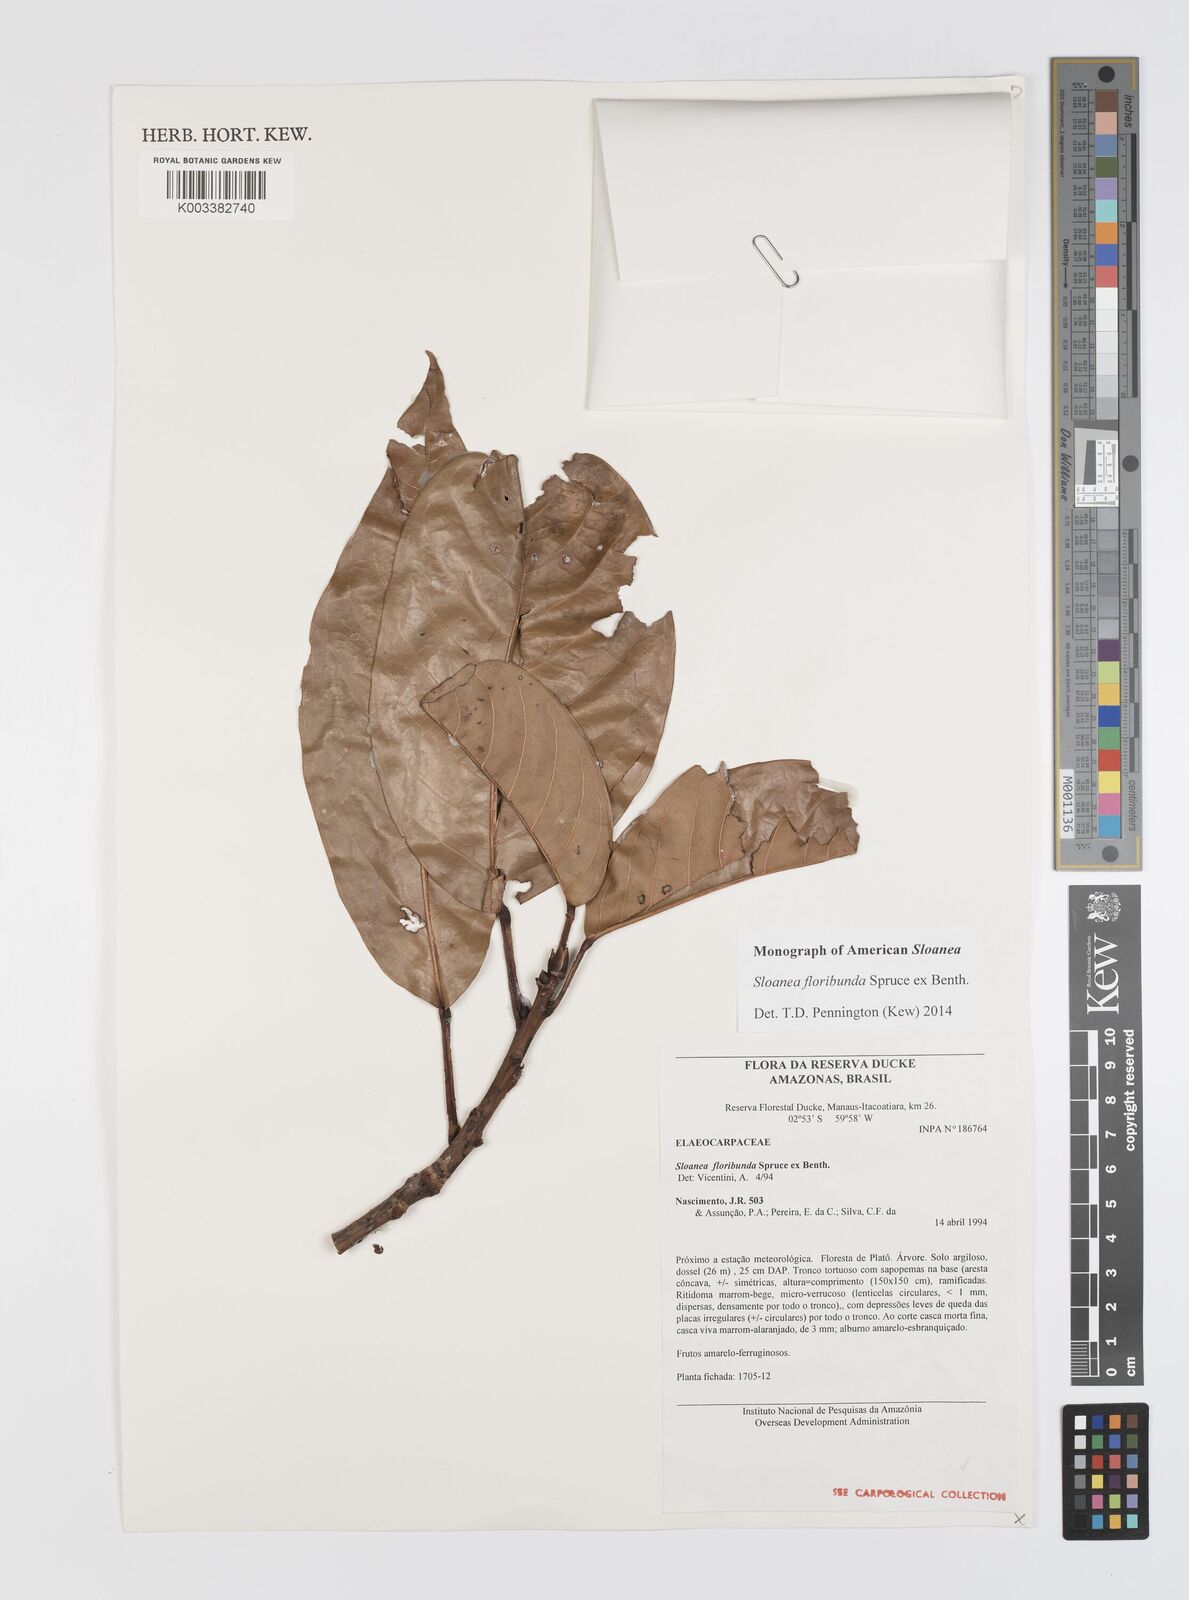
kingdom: Plantae
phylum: Tracheophyta
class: Magnoliopsida
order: Oxalidales
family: Elaeocarpaceae
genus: Sloanea
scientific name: Sloanea floribunda
